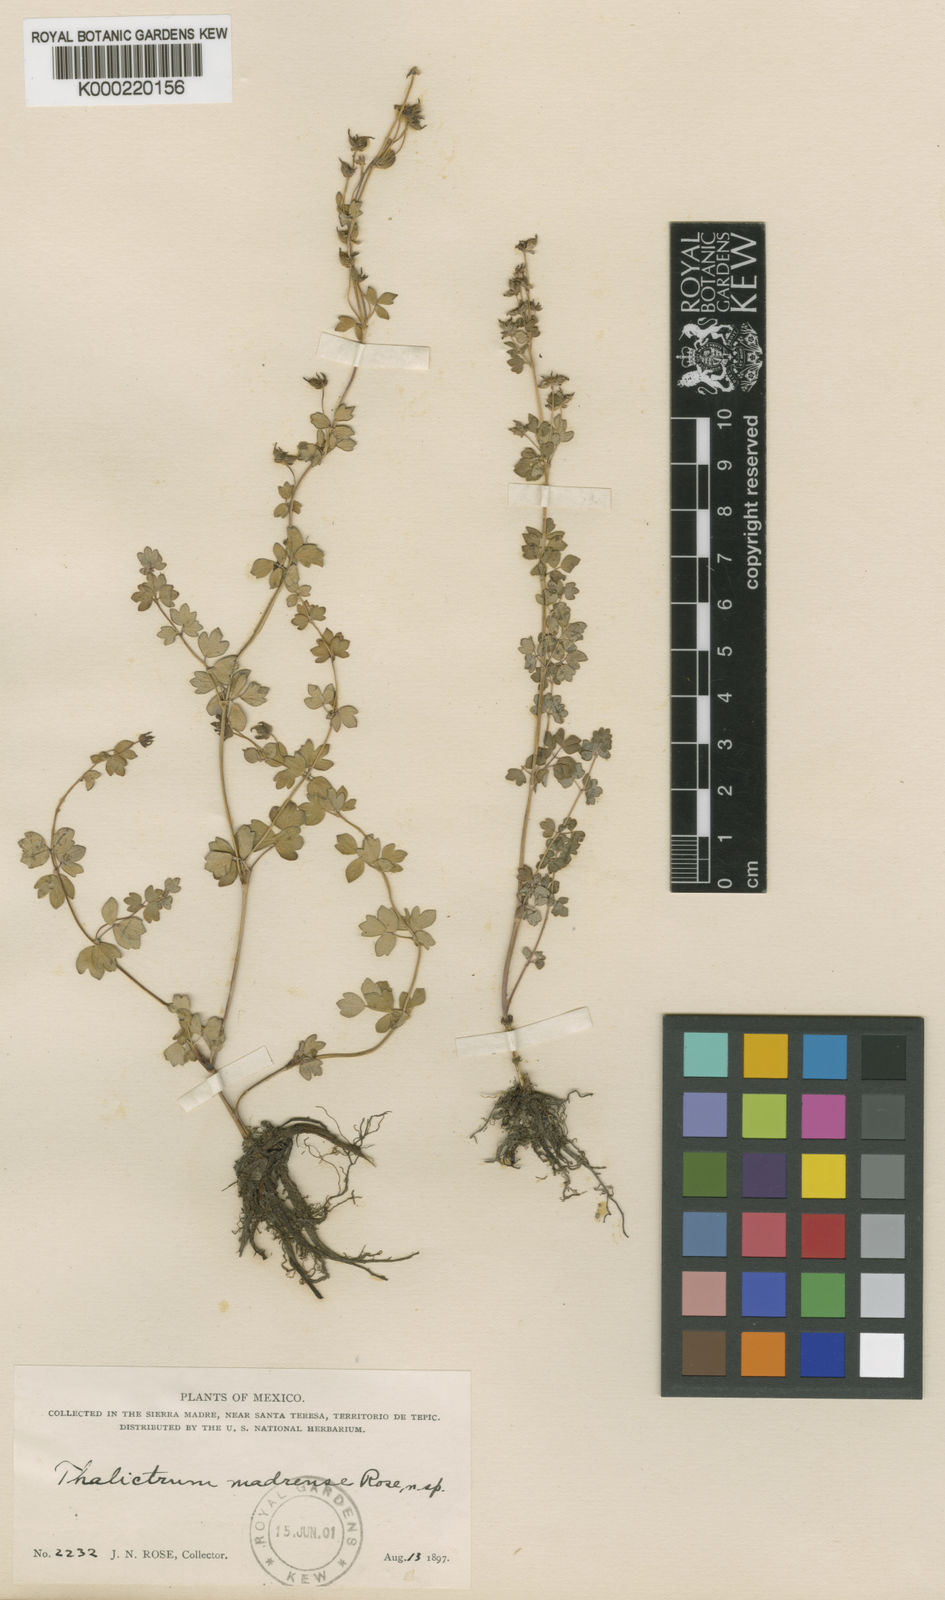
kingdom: Plantae
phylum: Tracheophyta
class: Magnoliopsida
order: Ranunculales
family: Ranunculaceae
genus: Thalictrum
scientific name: Thalictrum madrense
